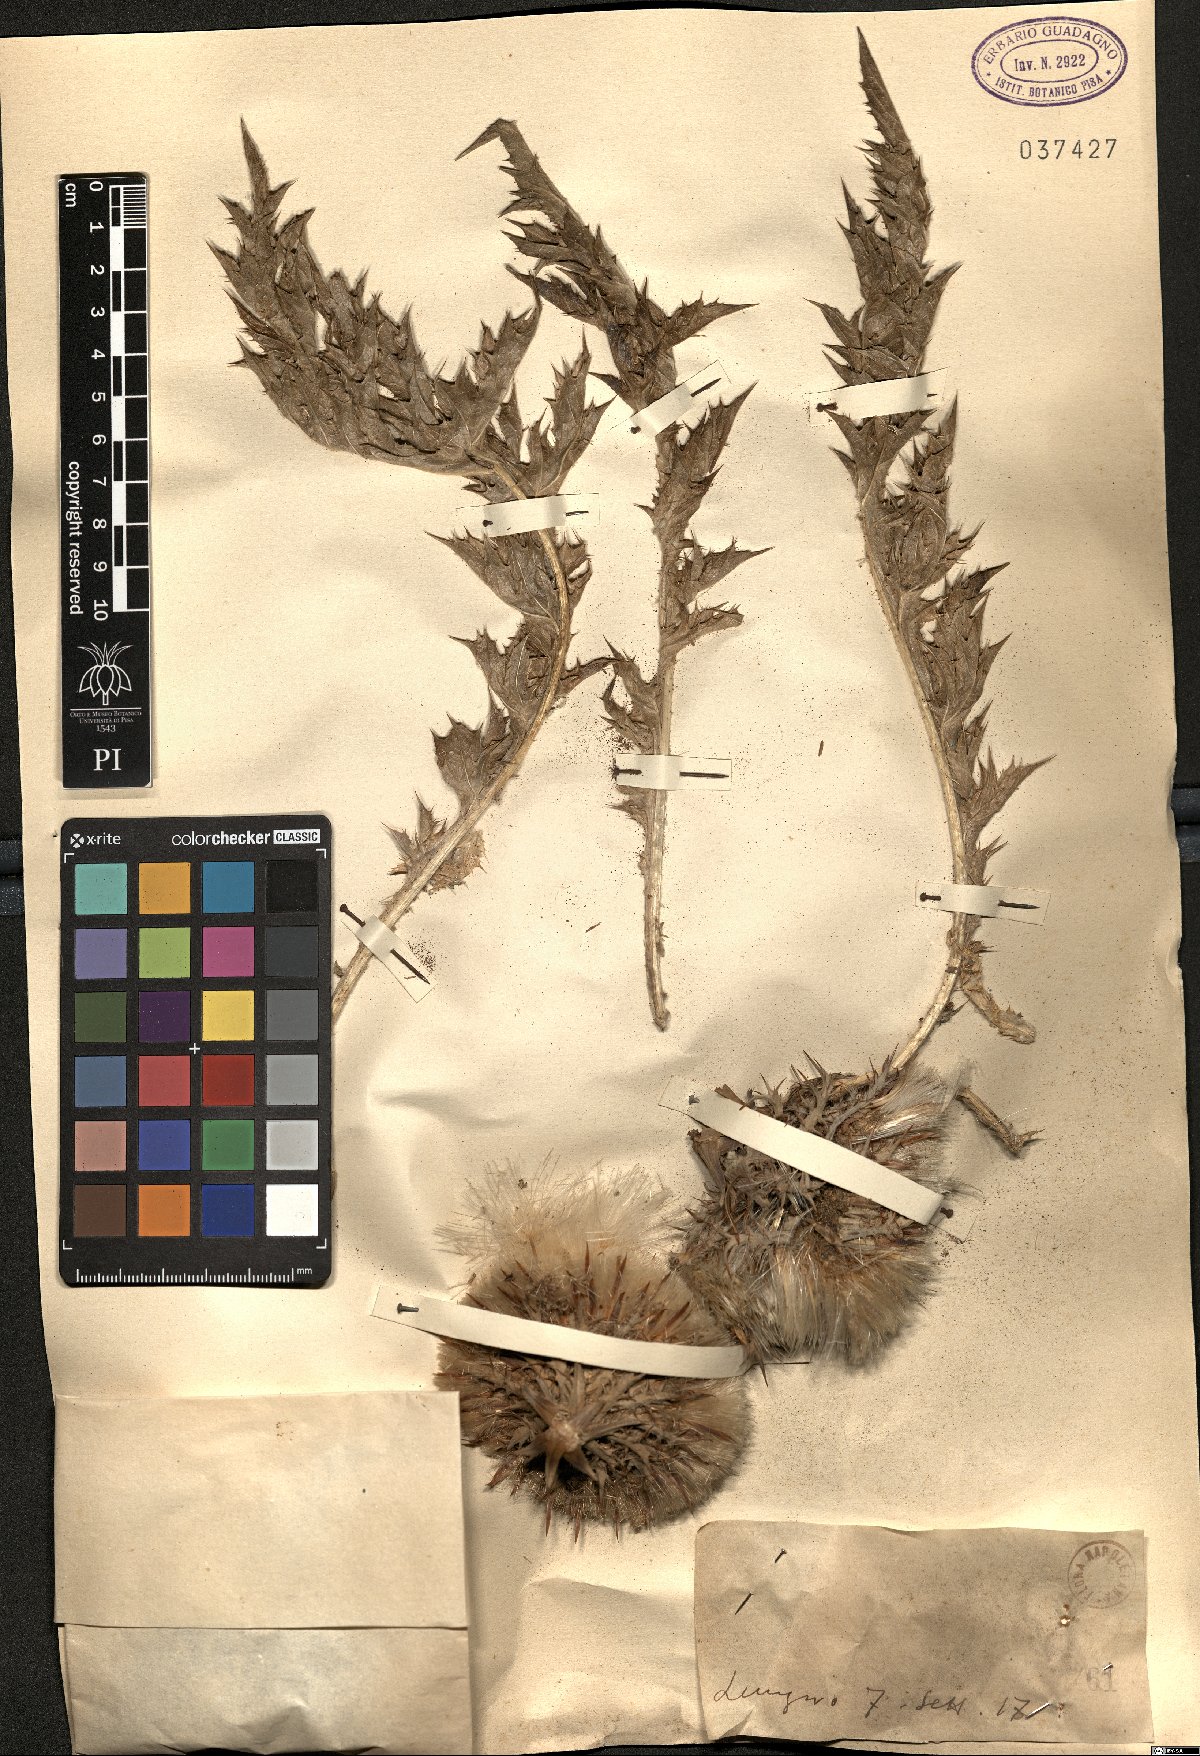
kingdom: Plantae
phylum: Tracheophyta
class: Magnoliopsida
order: Asterales
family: Asteraceae
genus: Carlina
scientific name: Carlina
